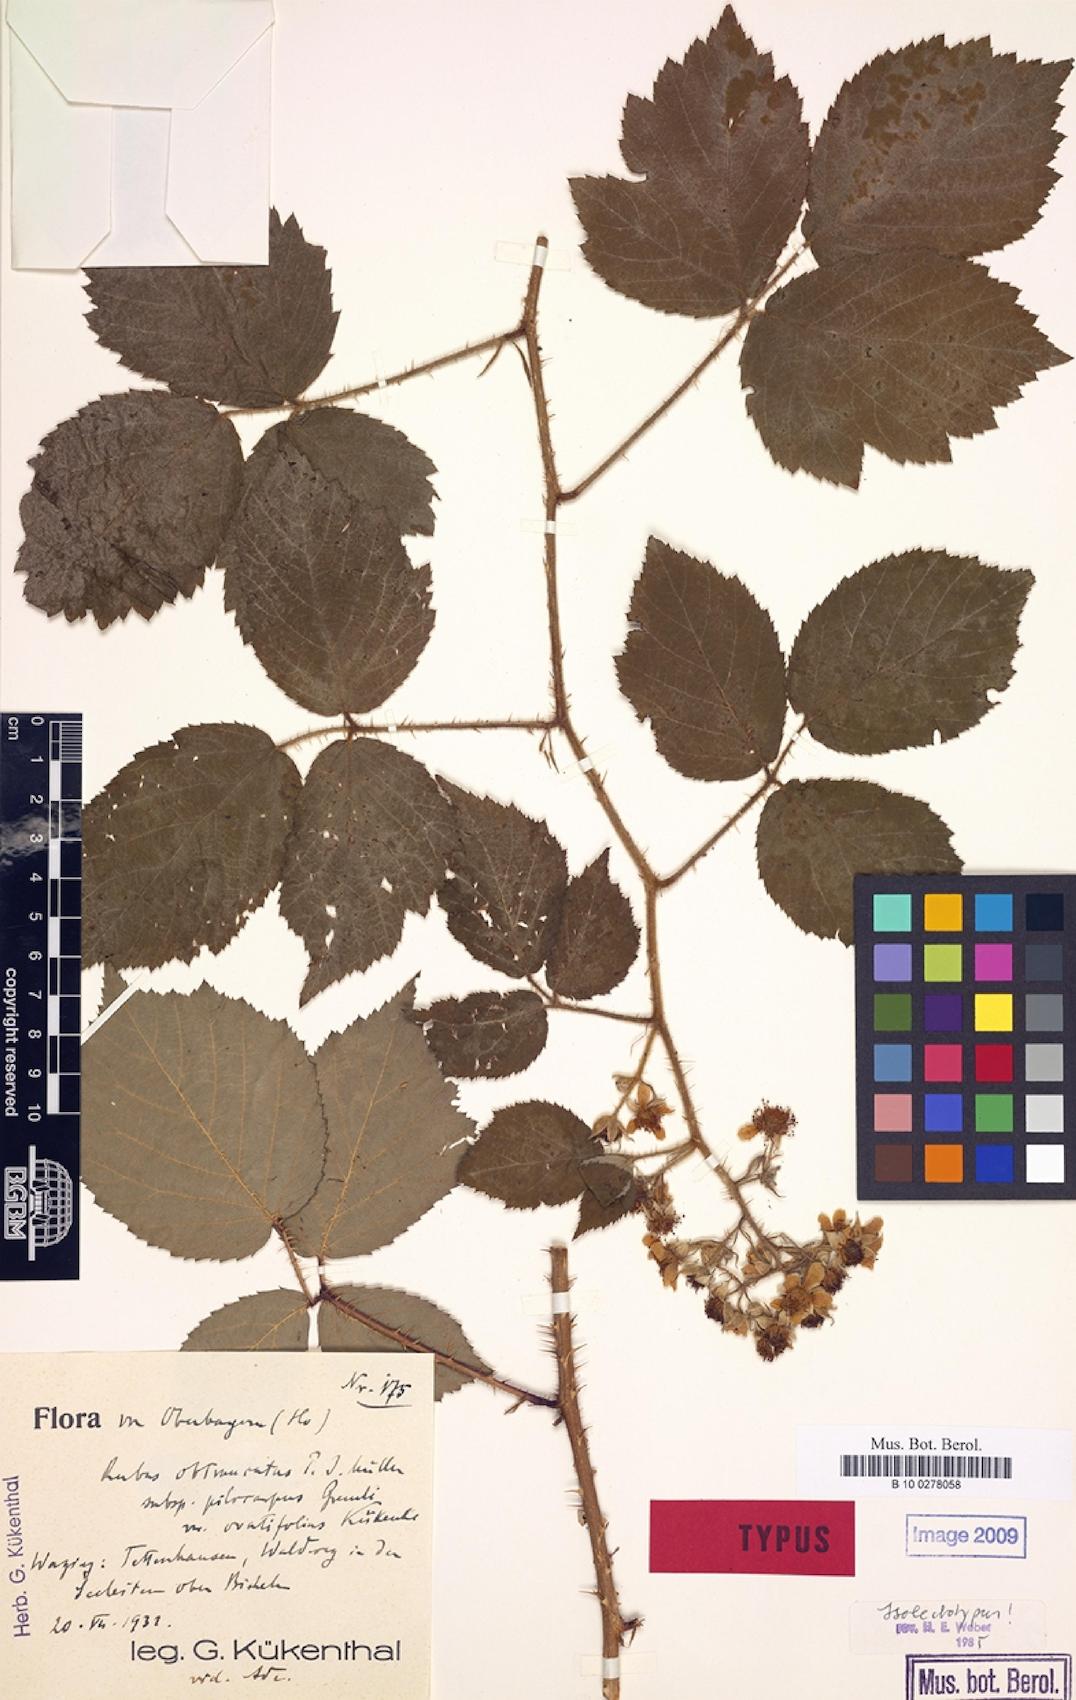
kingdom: Plantae
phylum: Tracheophyta
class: Magnoliopsida
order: Rosales
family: Rosaceae
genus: Rubus
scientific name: Rubus obtruncatus
